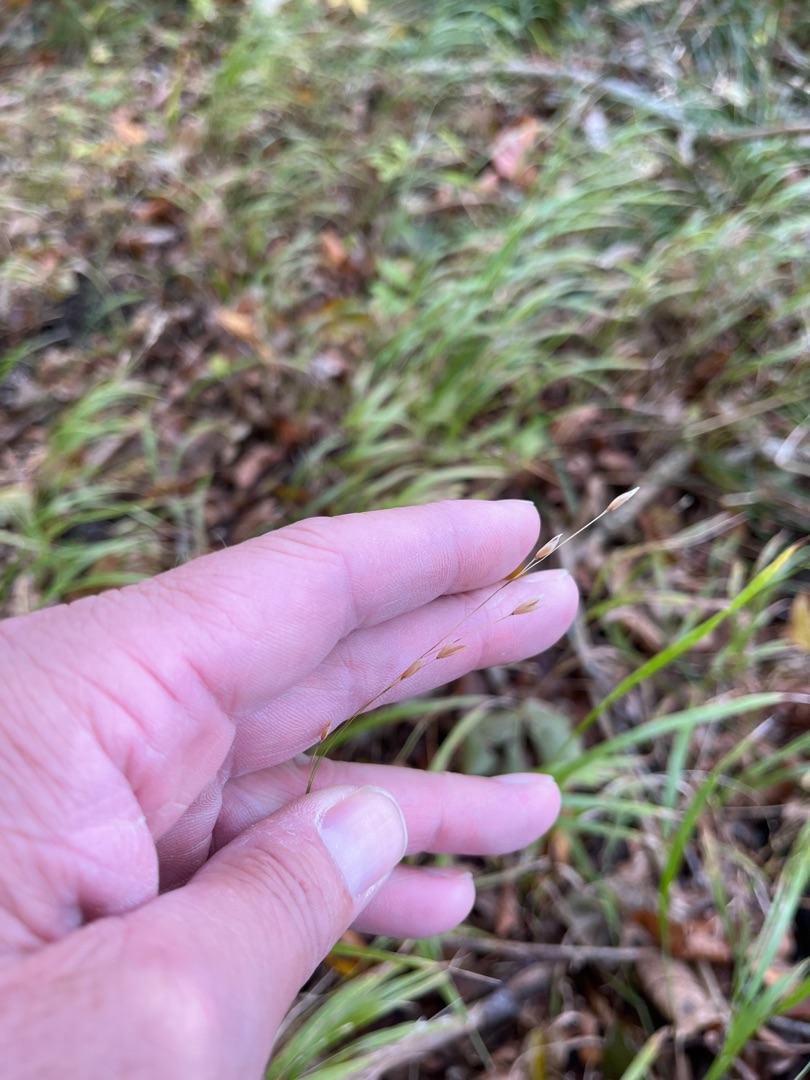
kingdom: Plantae
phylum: Tracheophyta
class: Liliopsida
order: Poales
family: Poaceae
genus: Melica
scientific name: Melica uniflora
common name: Enblomstret flitteraks
